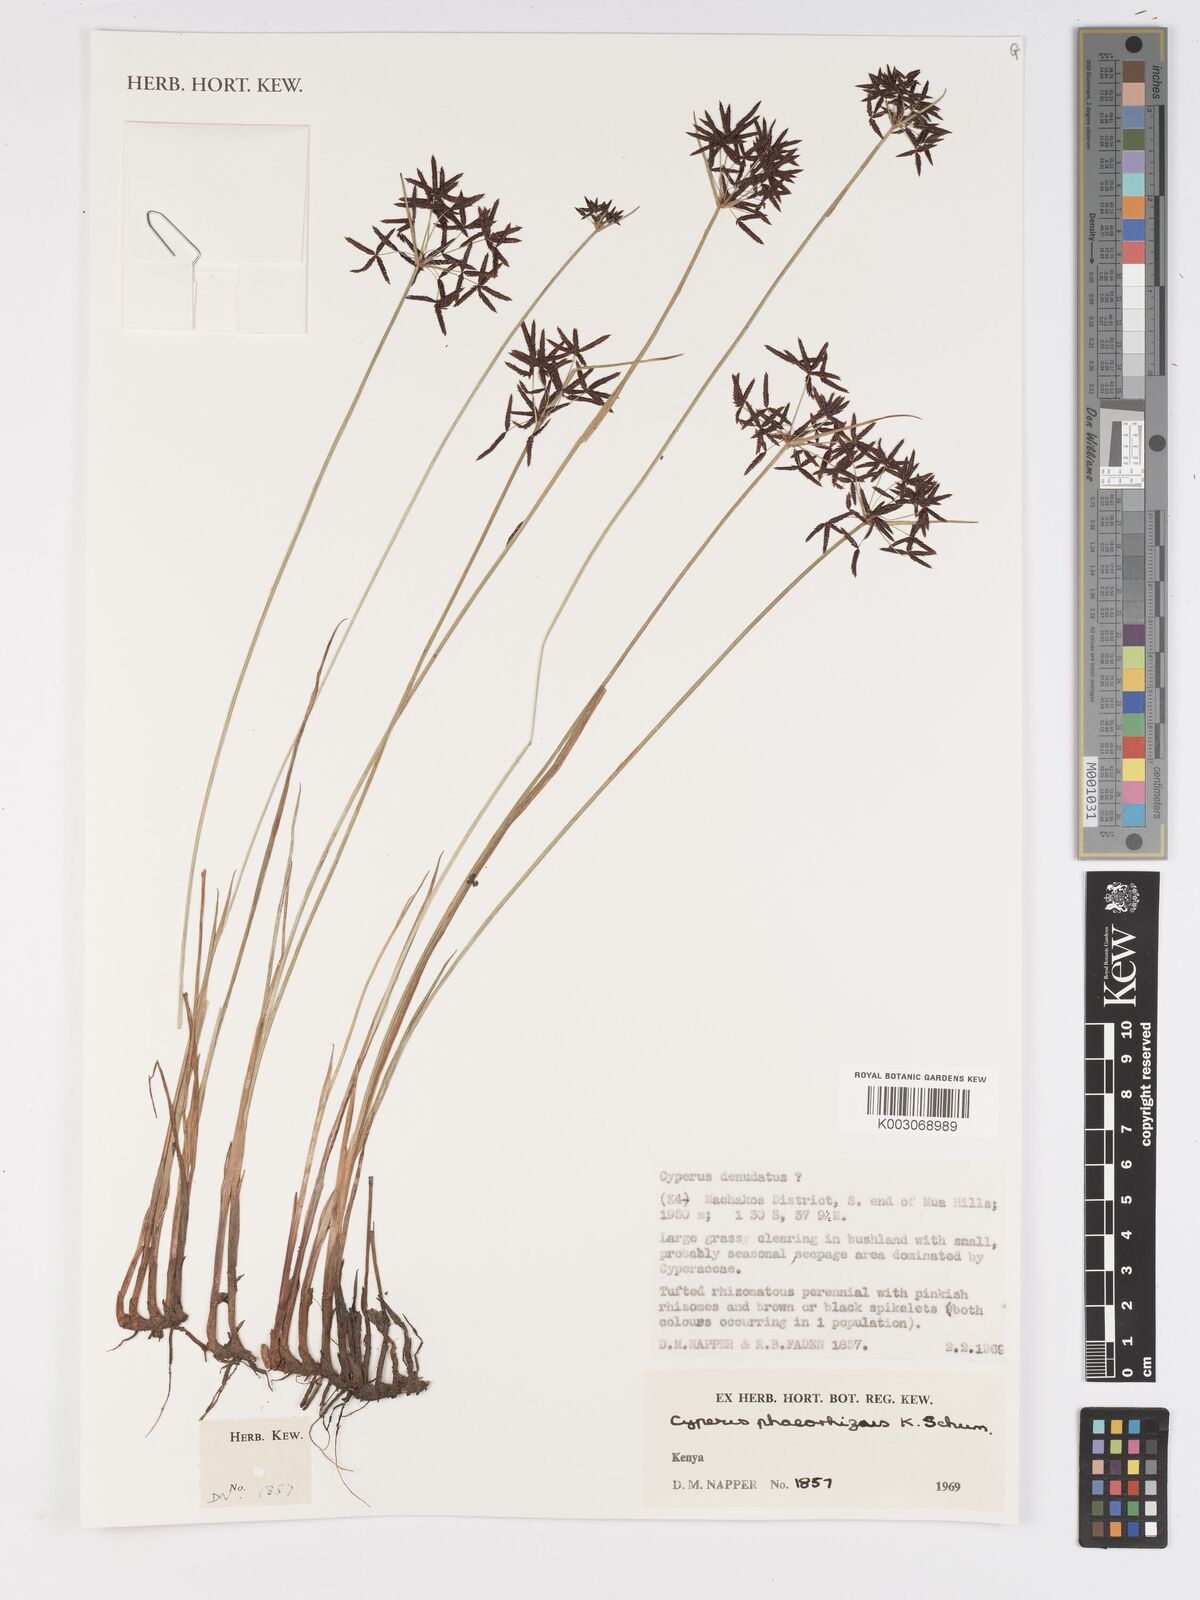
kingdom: Plantae
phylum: Tracheophyta
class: Liliopsida
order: Poales
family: Cyperaceae
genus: Cyperus
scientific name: Cyperus haspan
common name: Haspan flatsedge
